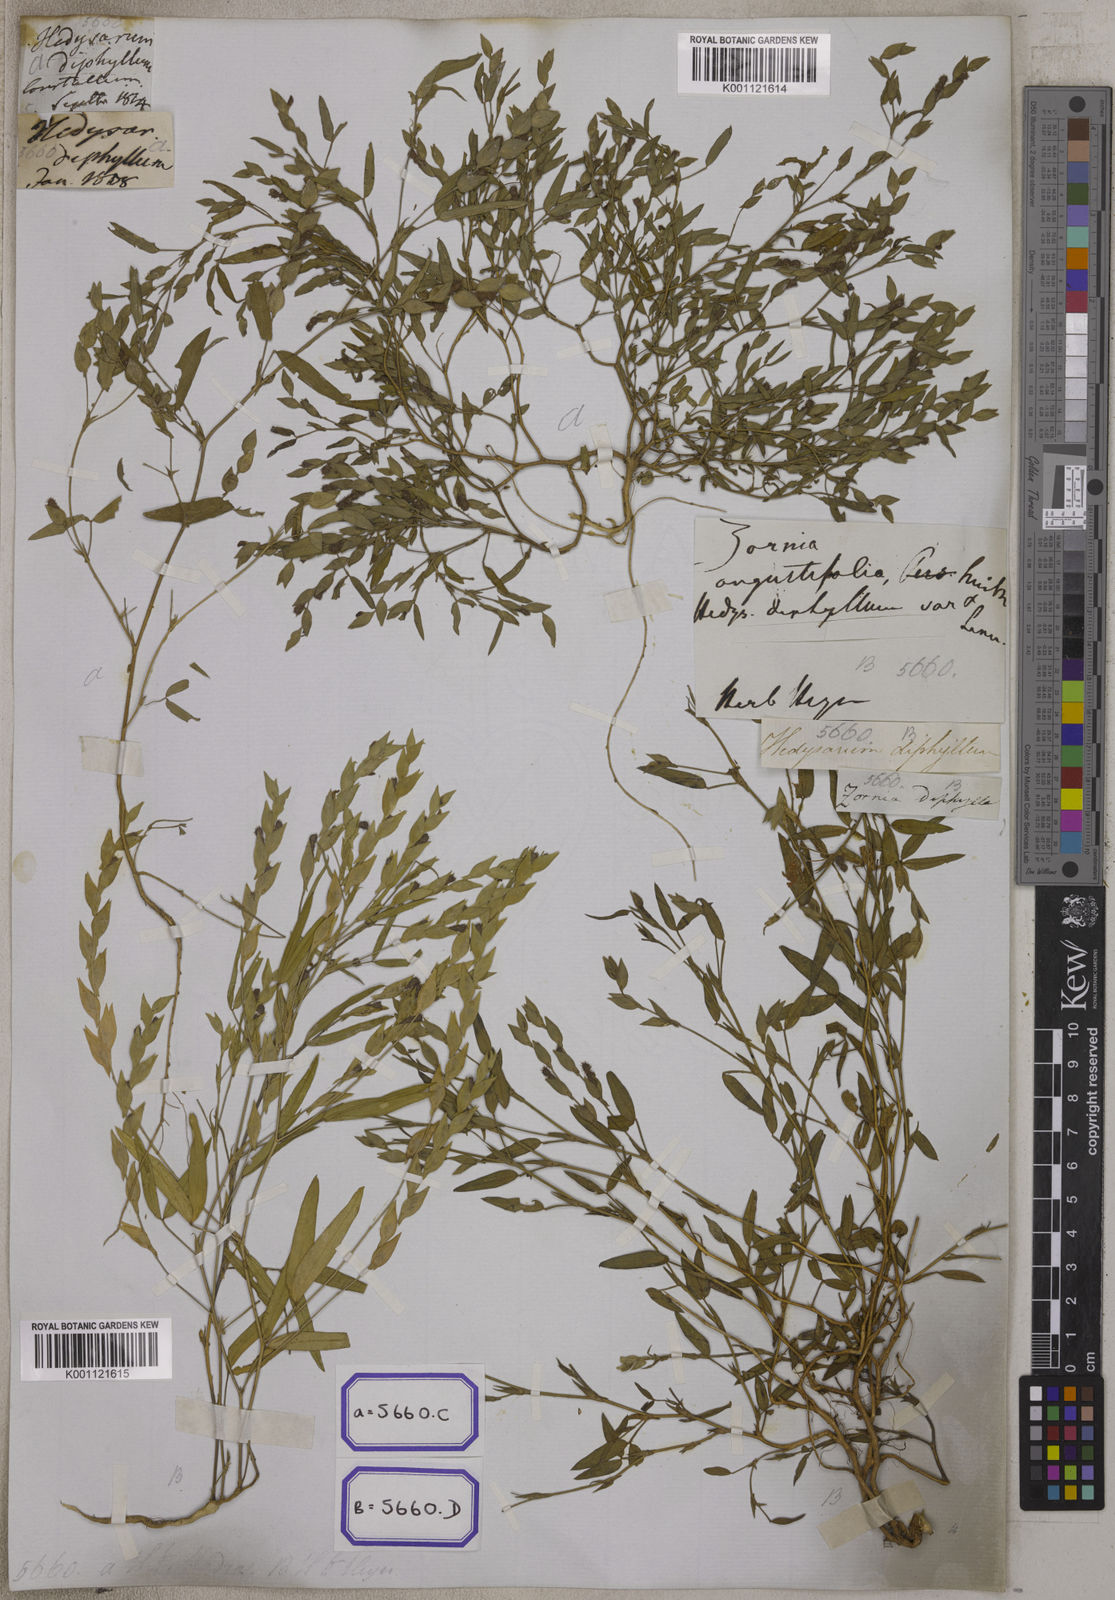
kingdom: Plantae
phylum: Tracheophyta
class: Magnoliopsida
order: Fabales
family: Fabaceae
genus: Zornia
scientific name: Zornia gibbosa
